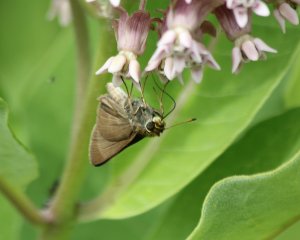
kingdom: Animalia
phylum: Arthropoda
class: Insecta
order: Lepidoptera
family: Hesperiidae
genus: Euphyes
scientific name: Euphyes vestris
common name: Dun Skipper
